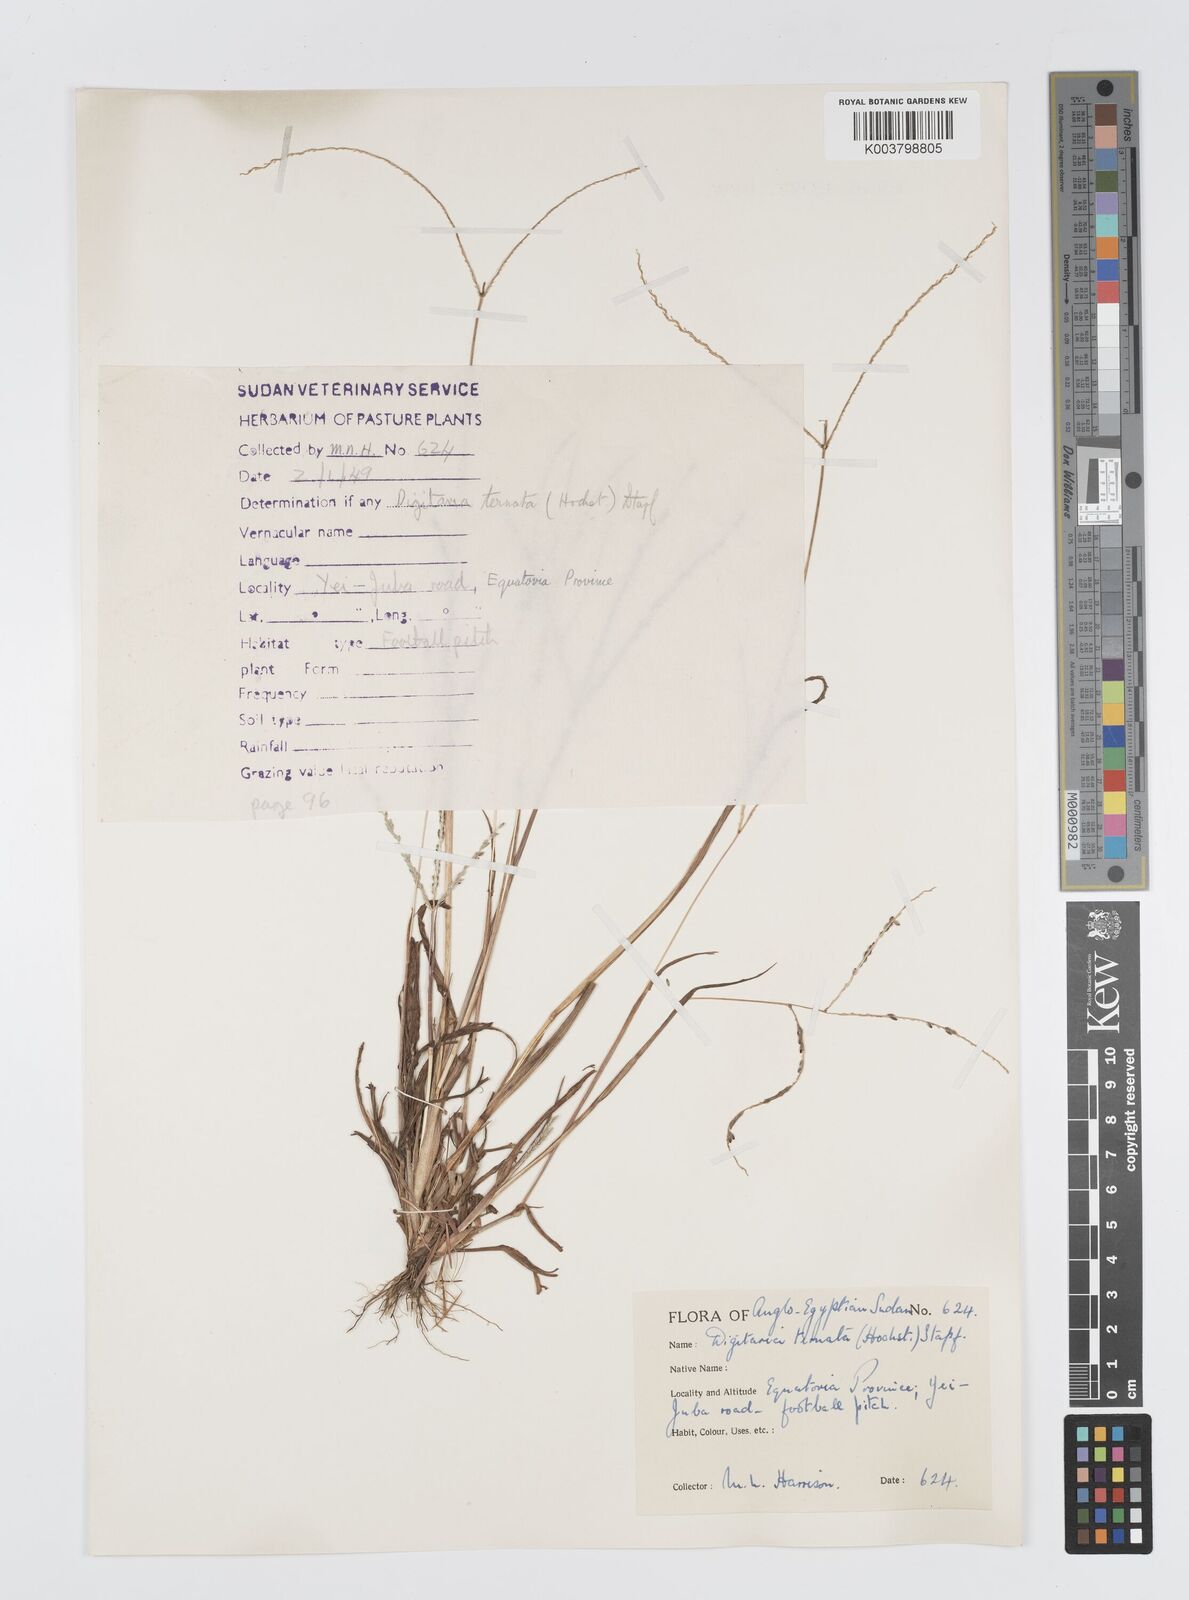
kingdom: Plantae
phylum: Tracheophyta
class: Liliopsida
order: Poales
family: Poaceae
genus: Digitaria
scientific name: Digitaria ternata
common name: Blackseed crabgrass
